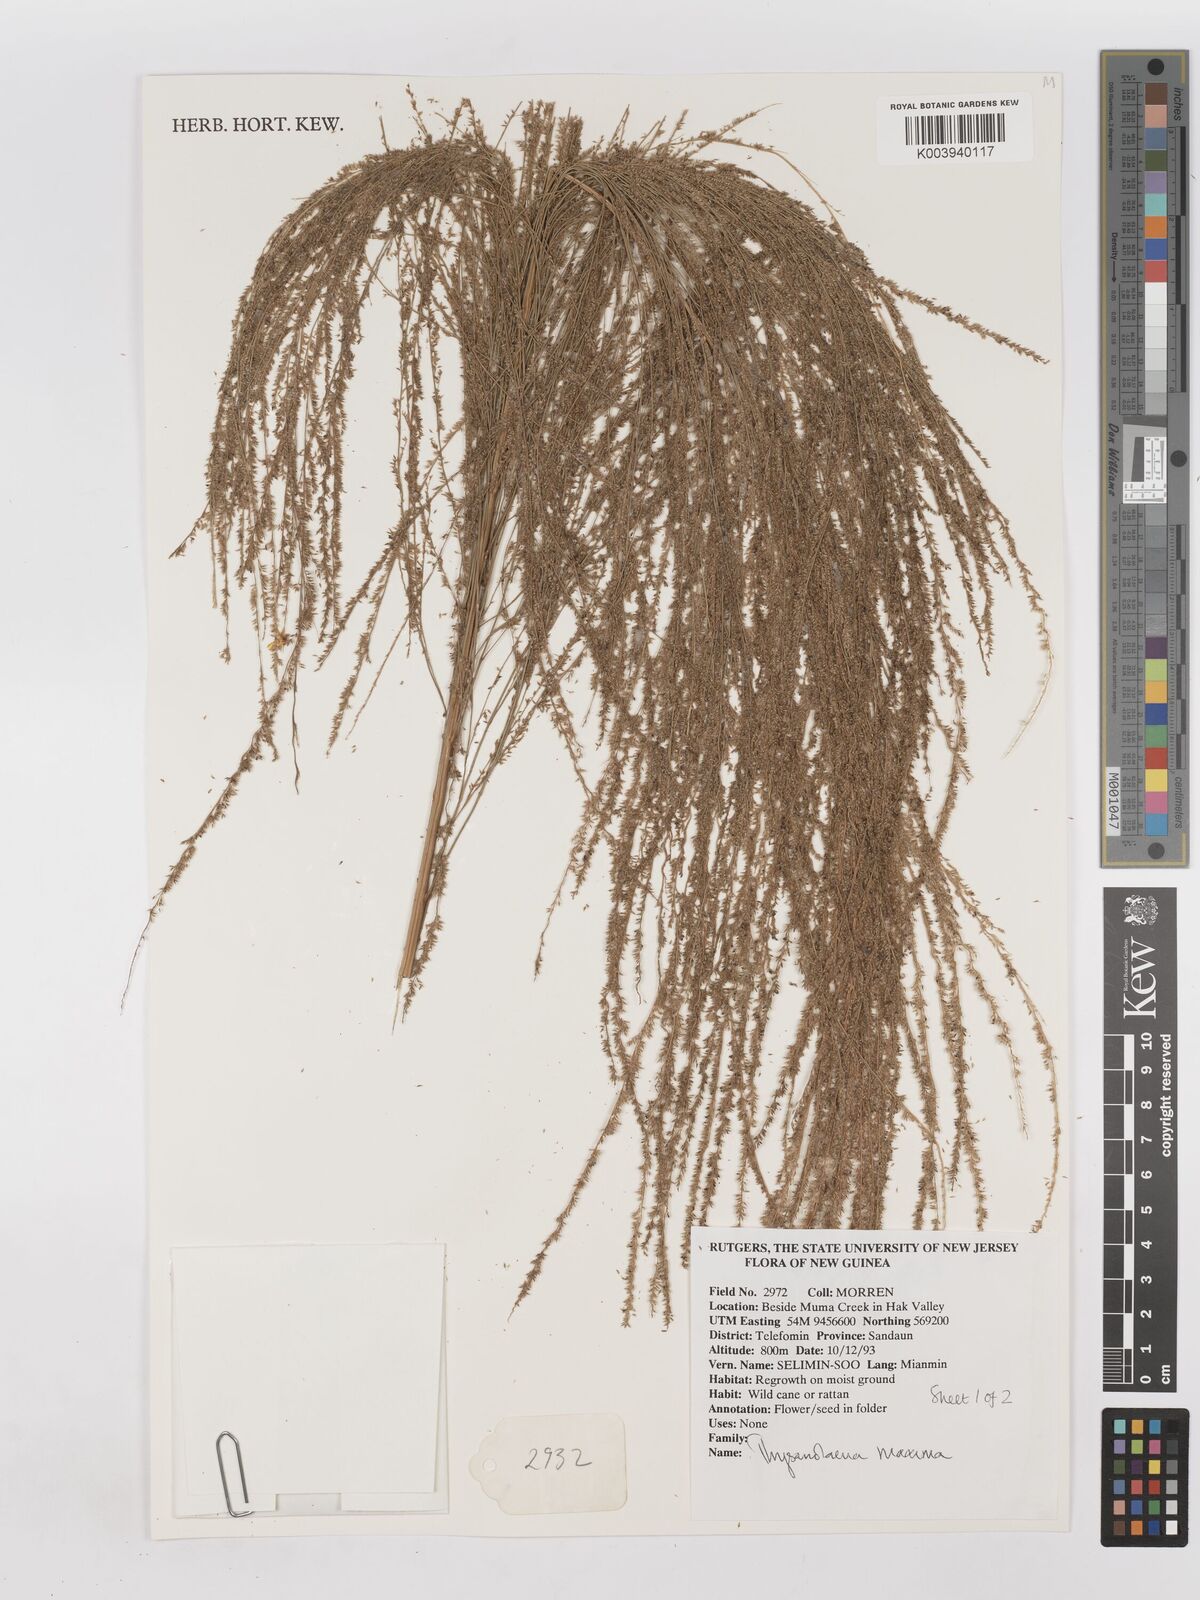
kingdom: Plantae
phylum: Tracheophyta
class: Liliopsida
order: Poales
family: Poaceae
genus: Thysanolaena
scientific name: Thysanolaena latifolia
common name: Tiger grass
